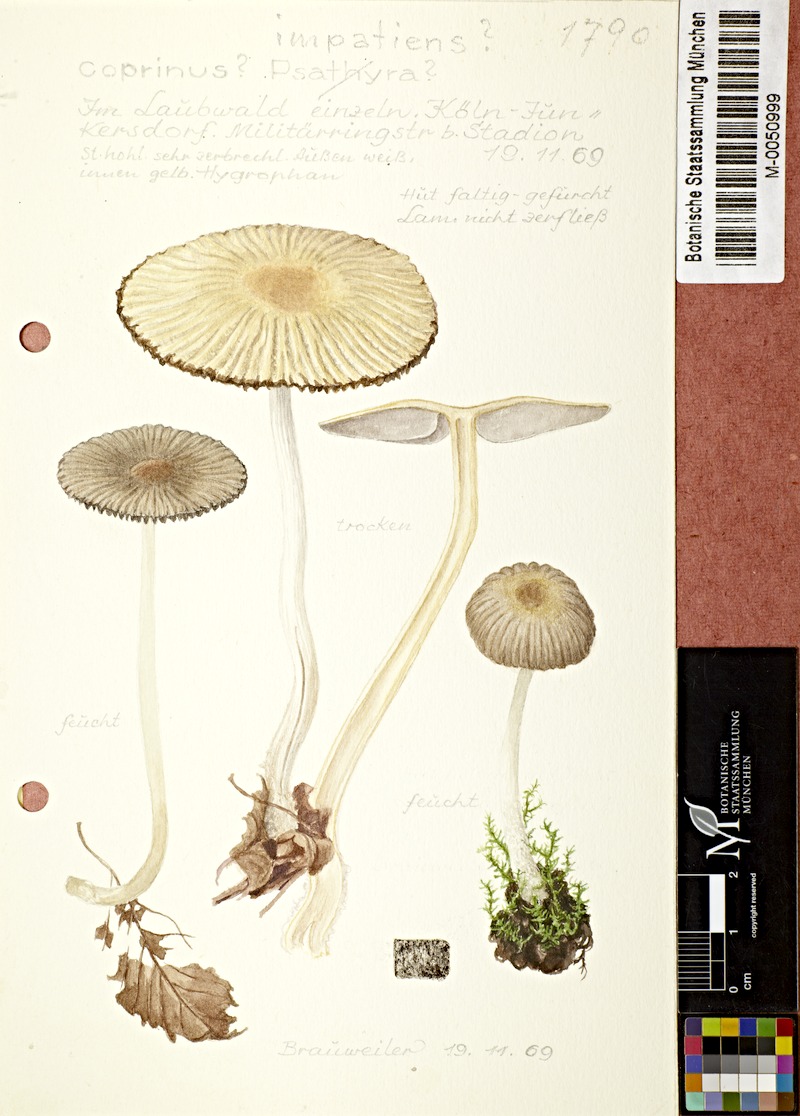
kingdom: Fungi
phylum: Basidiomycota
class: Agaricomycetes
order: Agaricales
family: Psathyrellaceae
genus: Tulosesus
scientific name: Tulosesus impatiens
